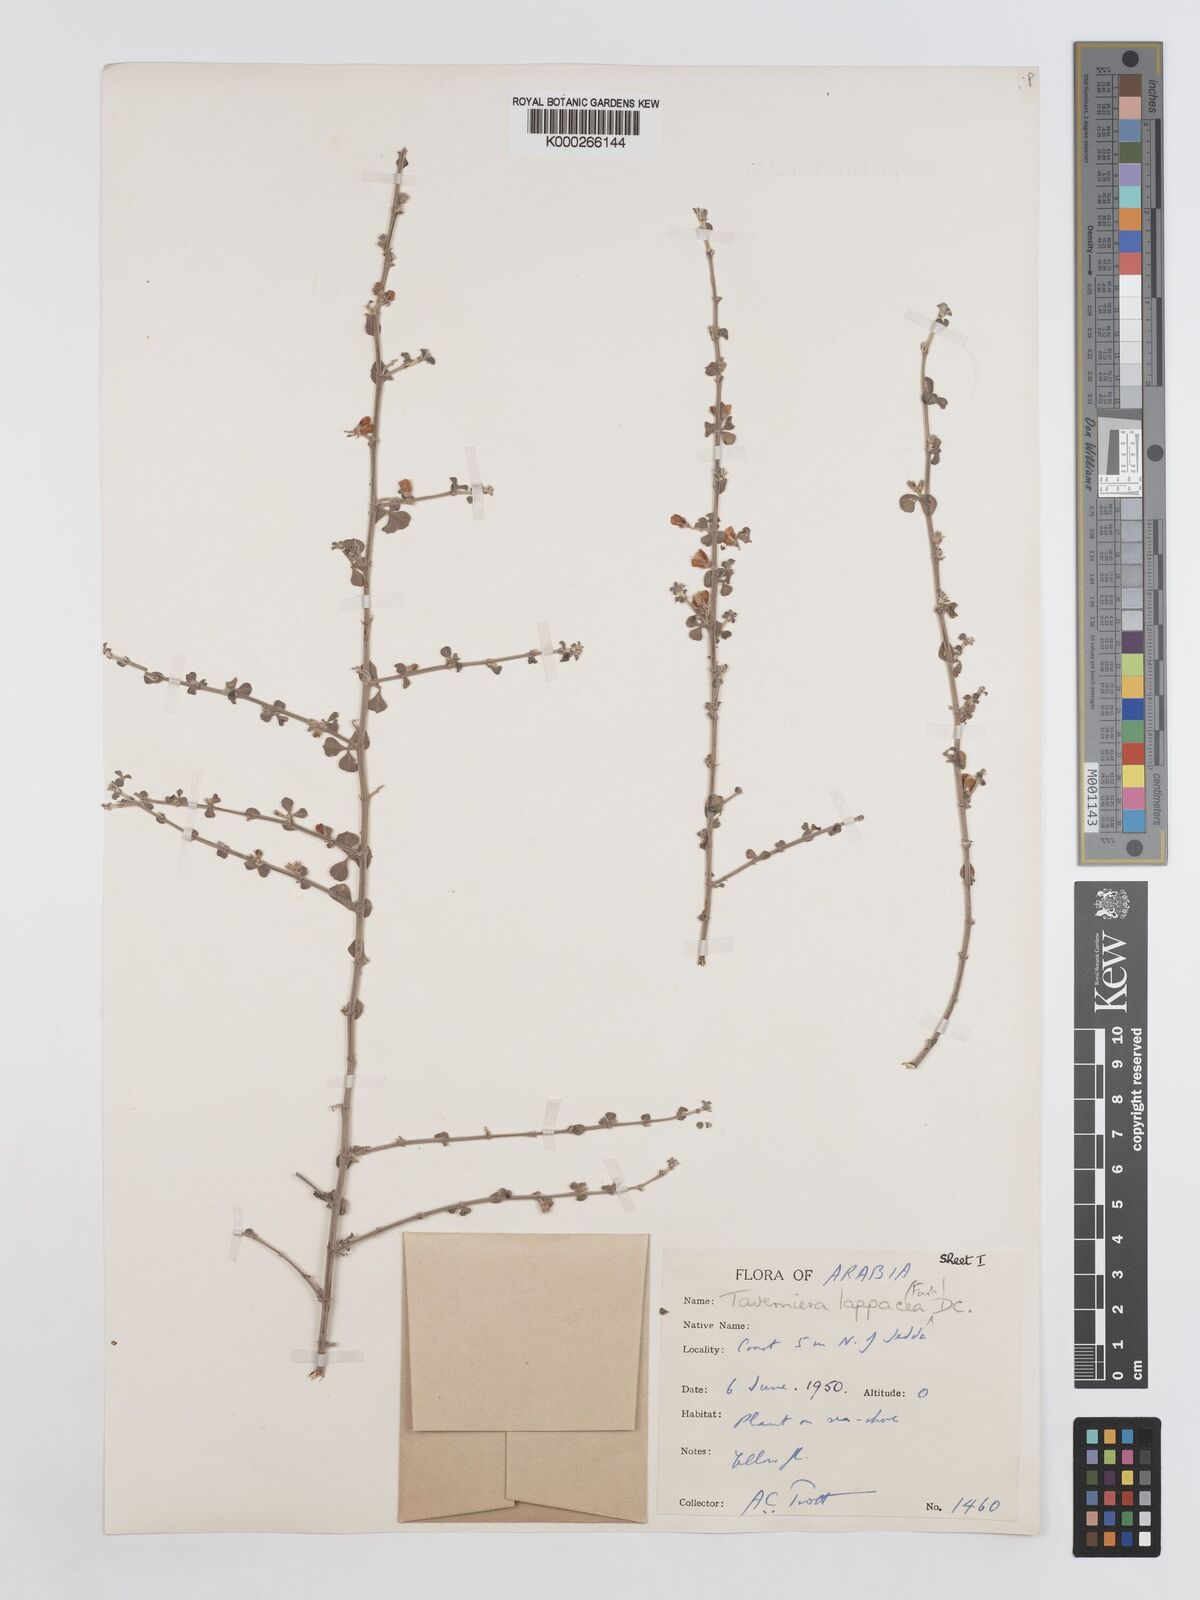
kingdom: Plantae
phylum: Tracheophyta
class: Magnoliopsida
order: Fabales
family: Fabaceae
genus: Taverniera
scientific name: Taverniera lappacea
